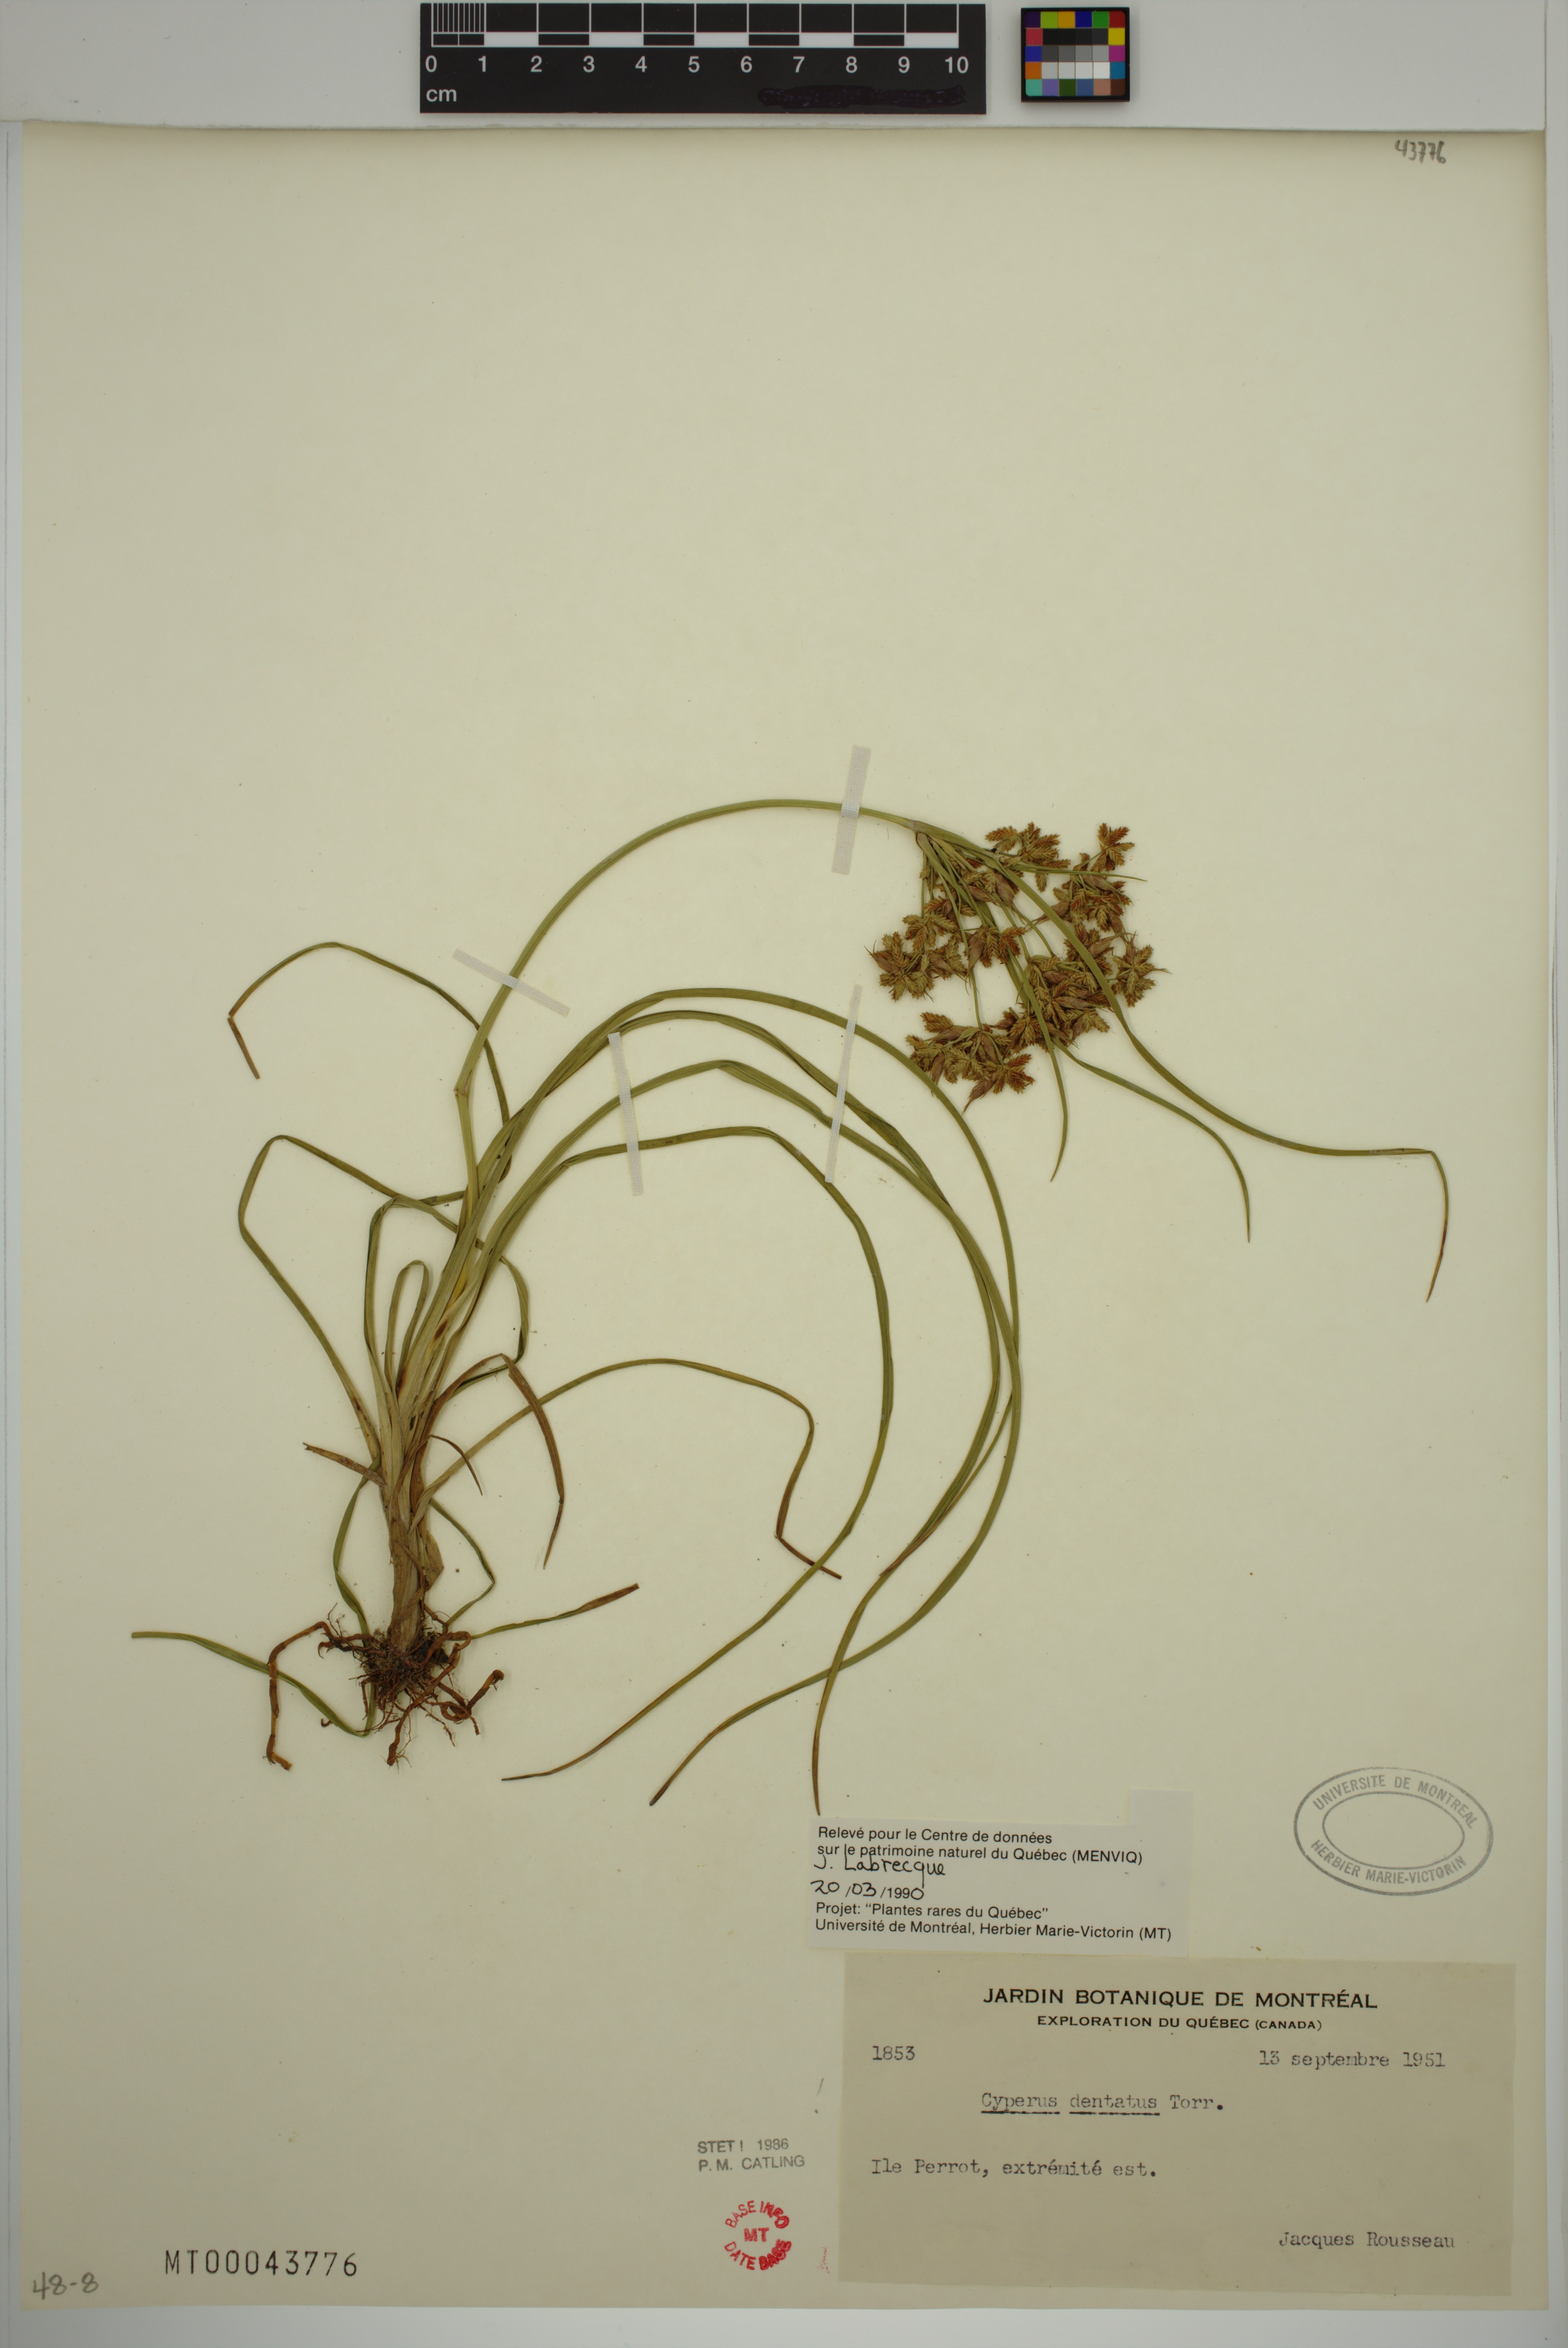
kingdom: Plantae
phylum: Tracheophyta
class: Liliopsida
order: Poales
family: Cyperaceae
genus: Cyperus
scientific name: Cyperus dentatus
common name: Dentate umbrella sedge
